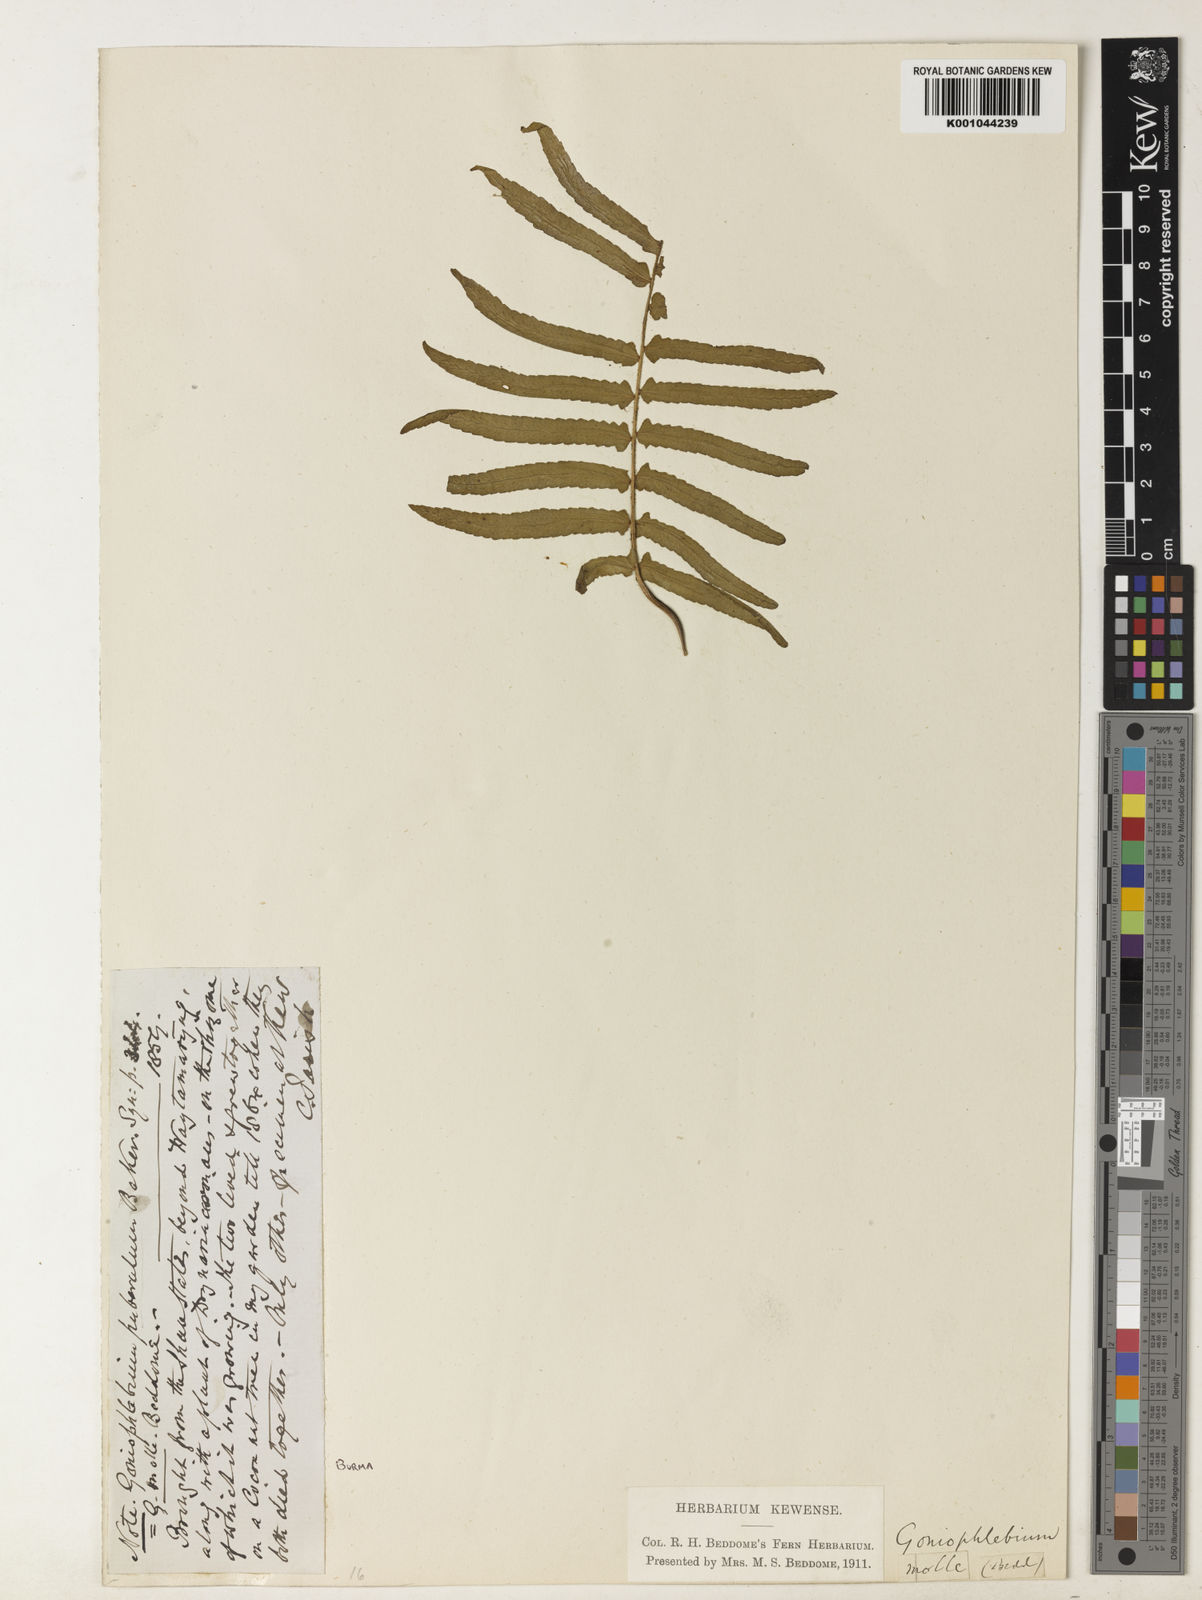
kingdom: Plantae
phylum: Tracheophyta
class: Polypodiopsida
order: Polypodiales
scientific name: Polypodiales
